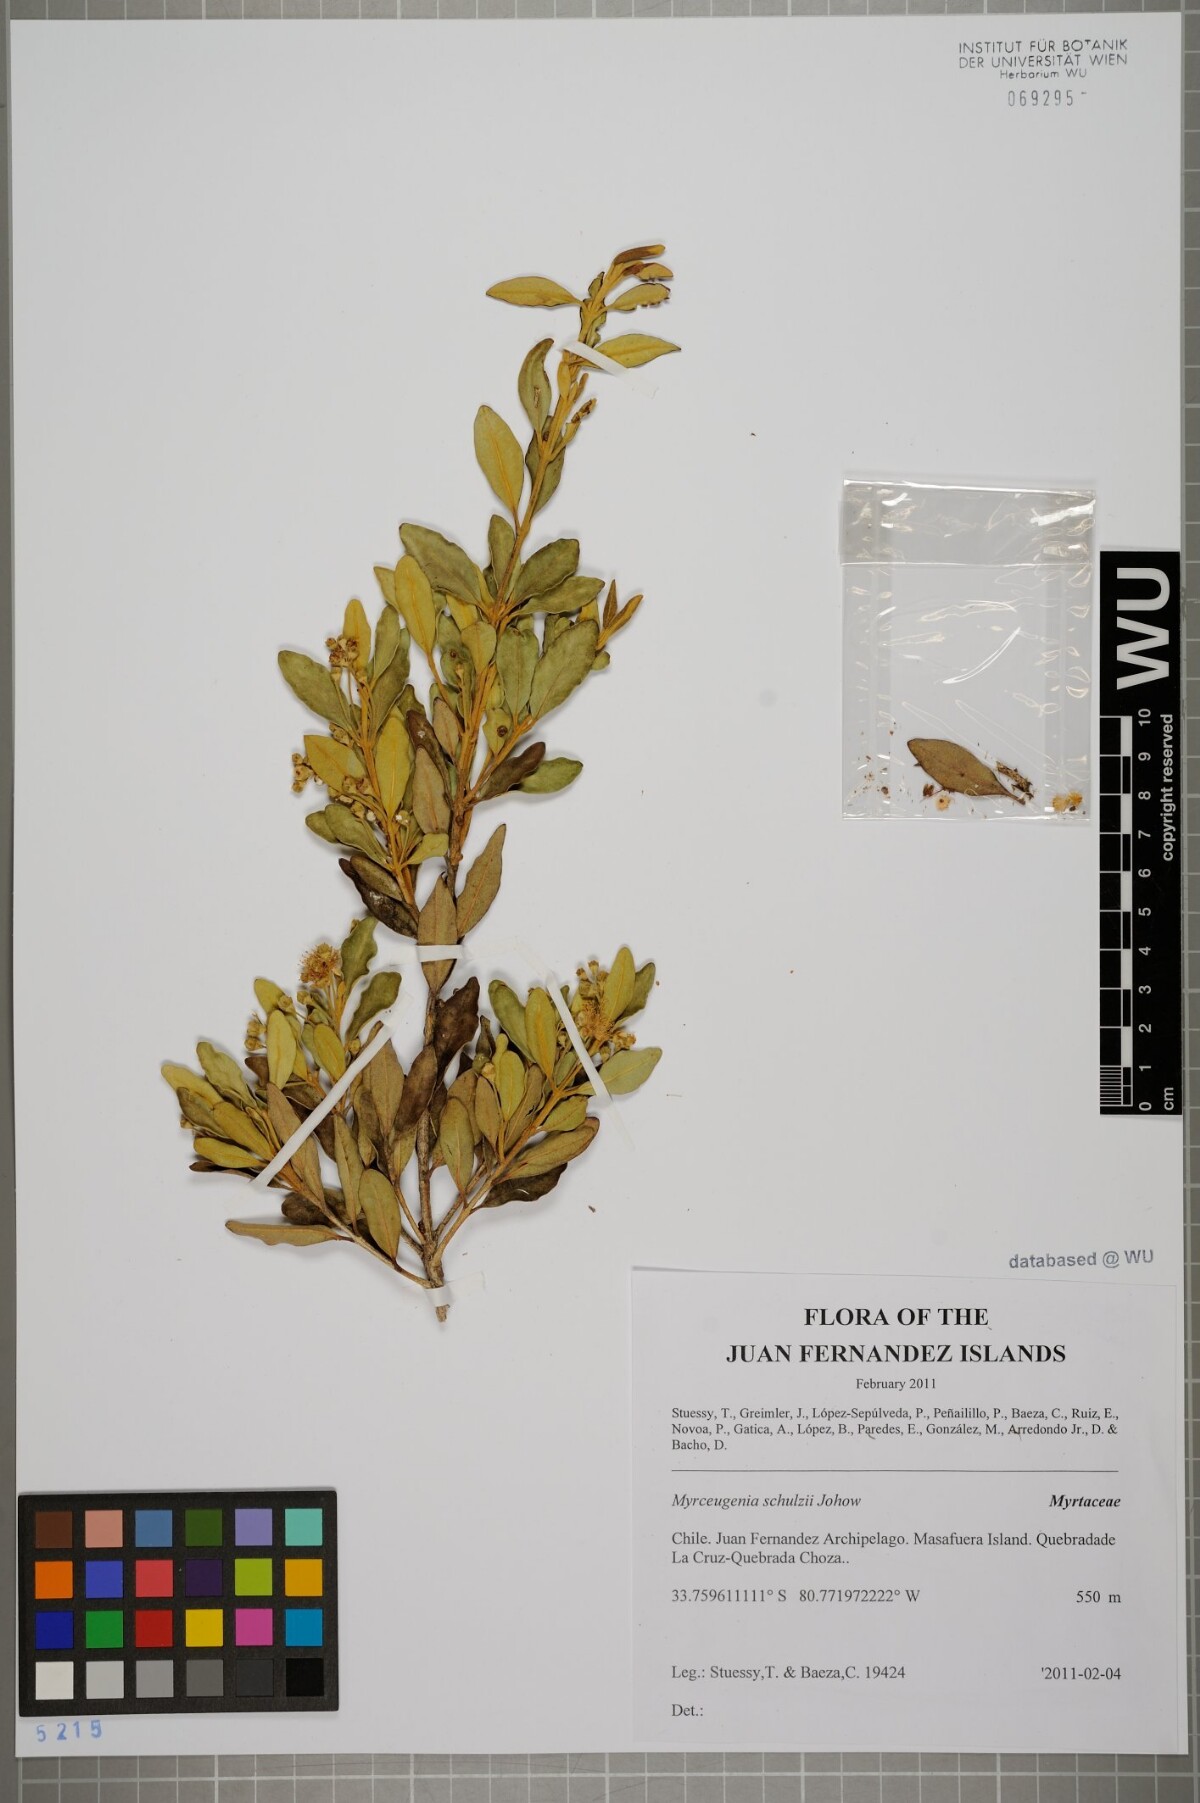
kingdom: Plantae
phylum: Tracheophyta
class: Magnoliopsida
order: Myrtales
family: Myrtaceae
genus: Myrceugenia
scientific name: Myrceugenia schulzei
